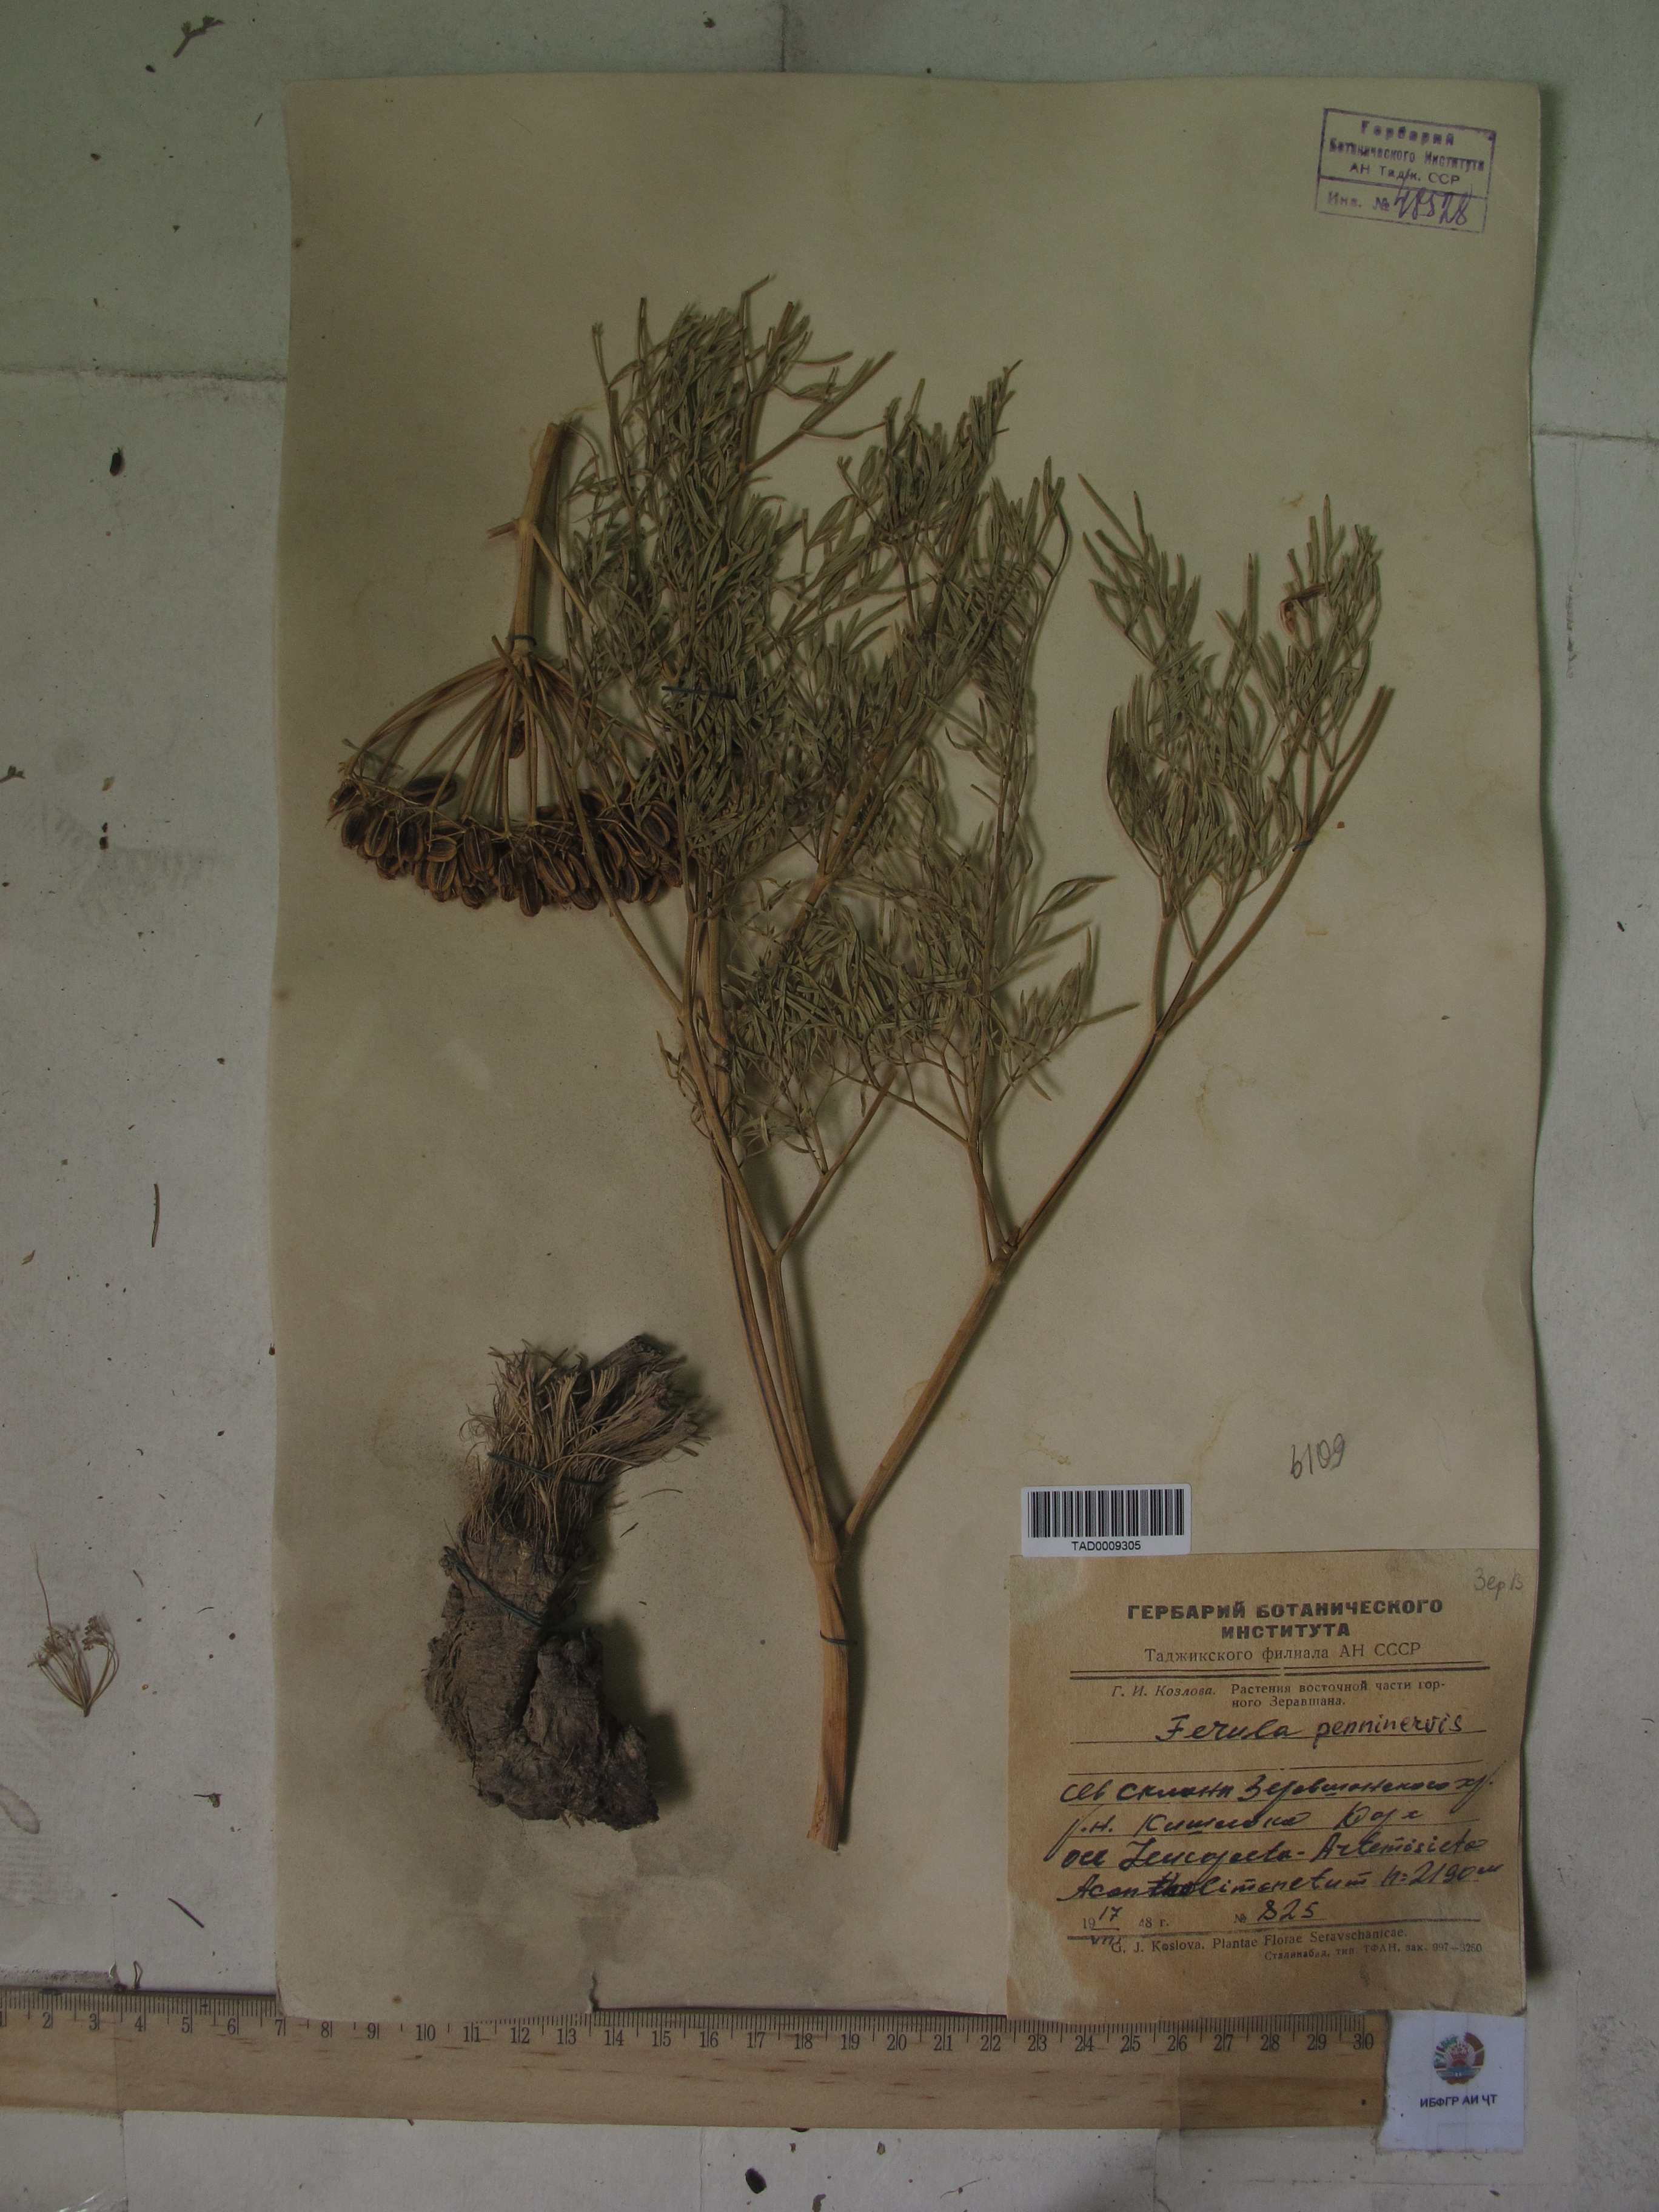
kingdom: Plantae
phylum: Tracheophyta
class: Magnoliopsida
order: Apiales
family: Apiaceae
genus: Ferula
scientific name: Ferula penninervis
